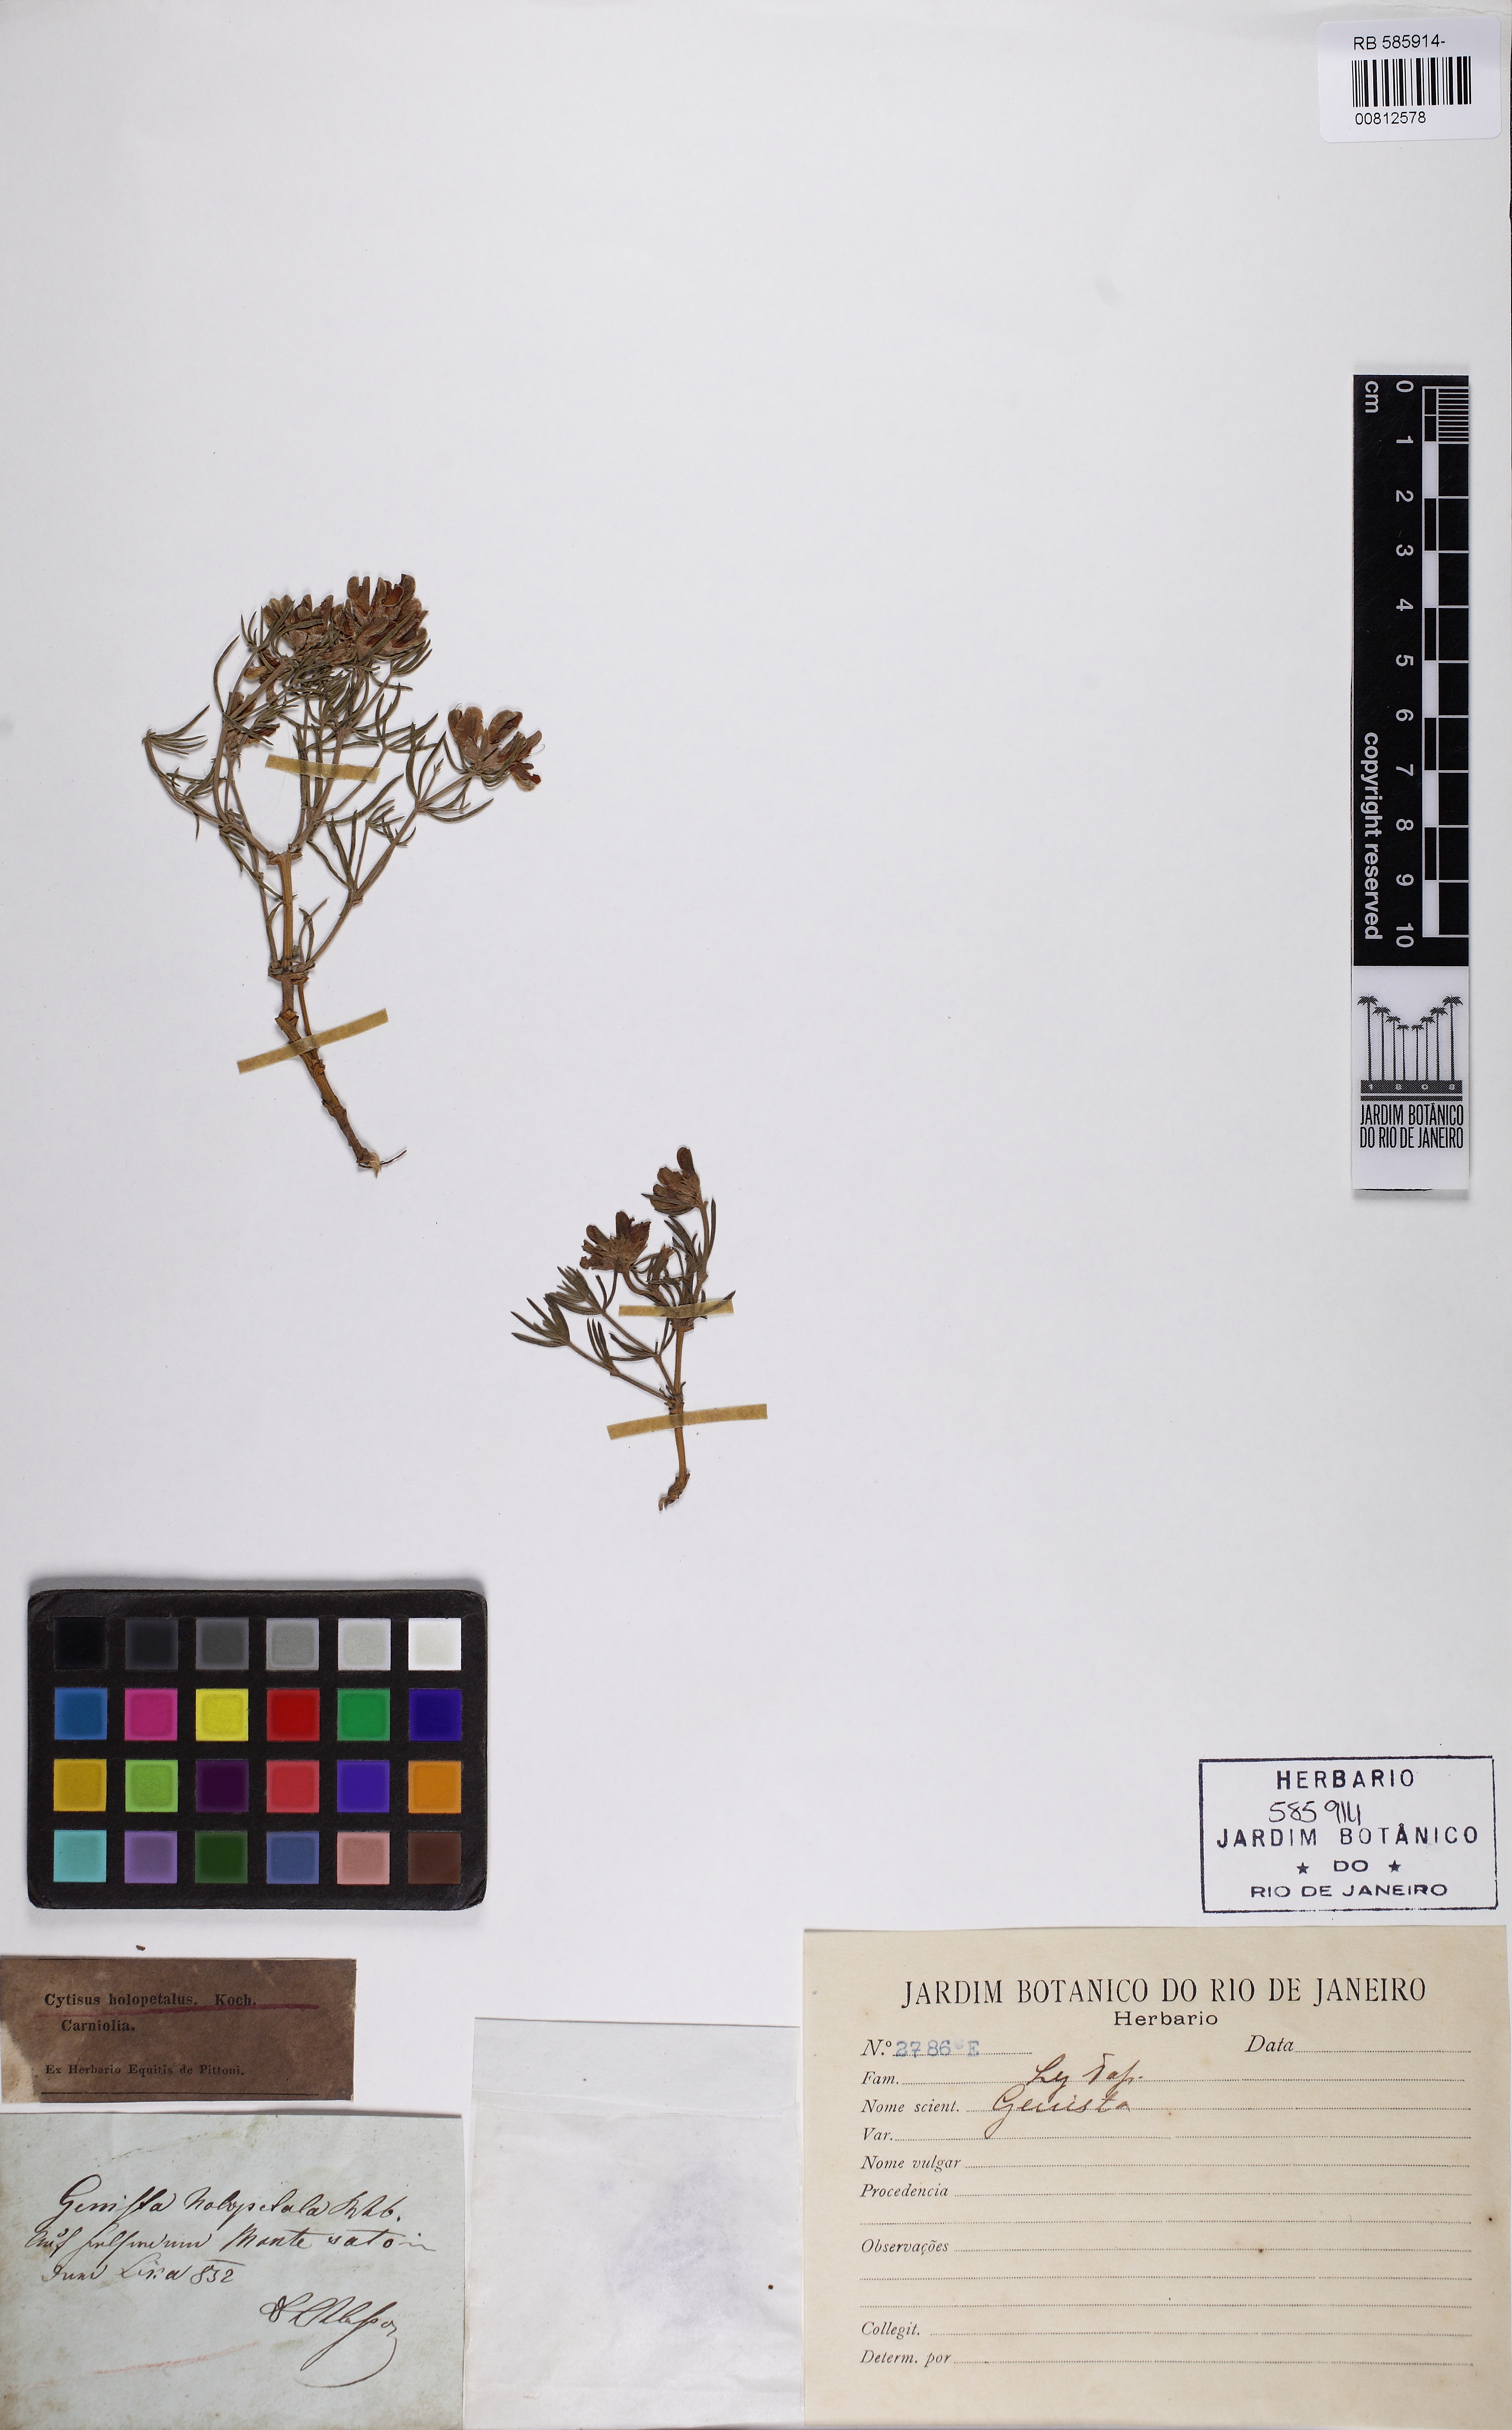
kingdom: Plantae
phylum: Tracheophyta
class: Magnoliopsida
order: Fabales
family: Fabaceae
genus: Genista
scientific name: Genista holopetala
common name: Entire-petalled gorse
